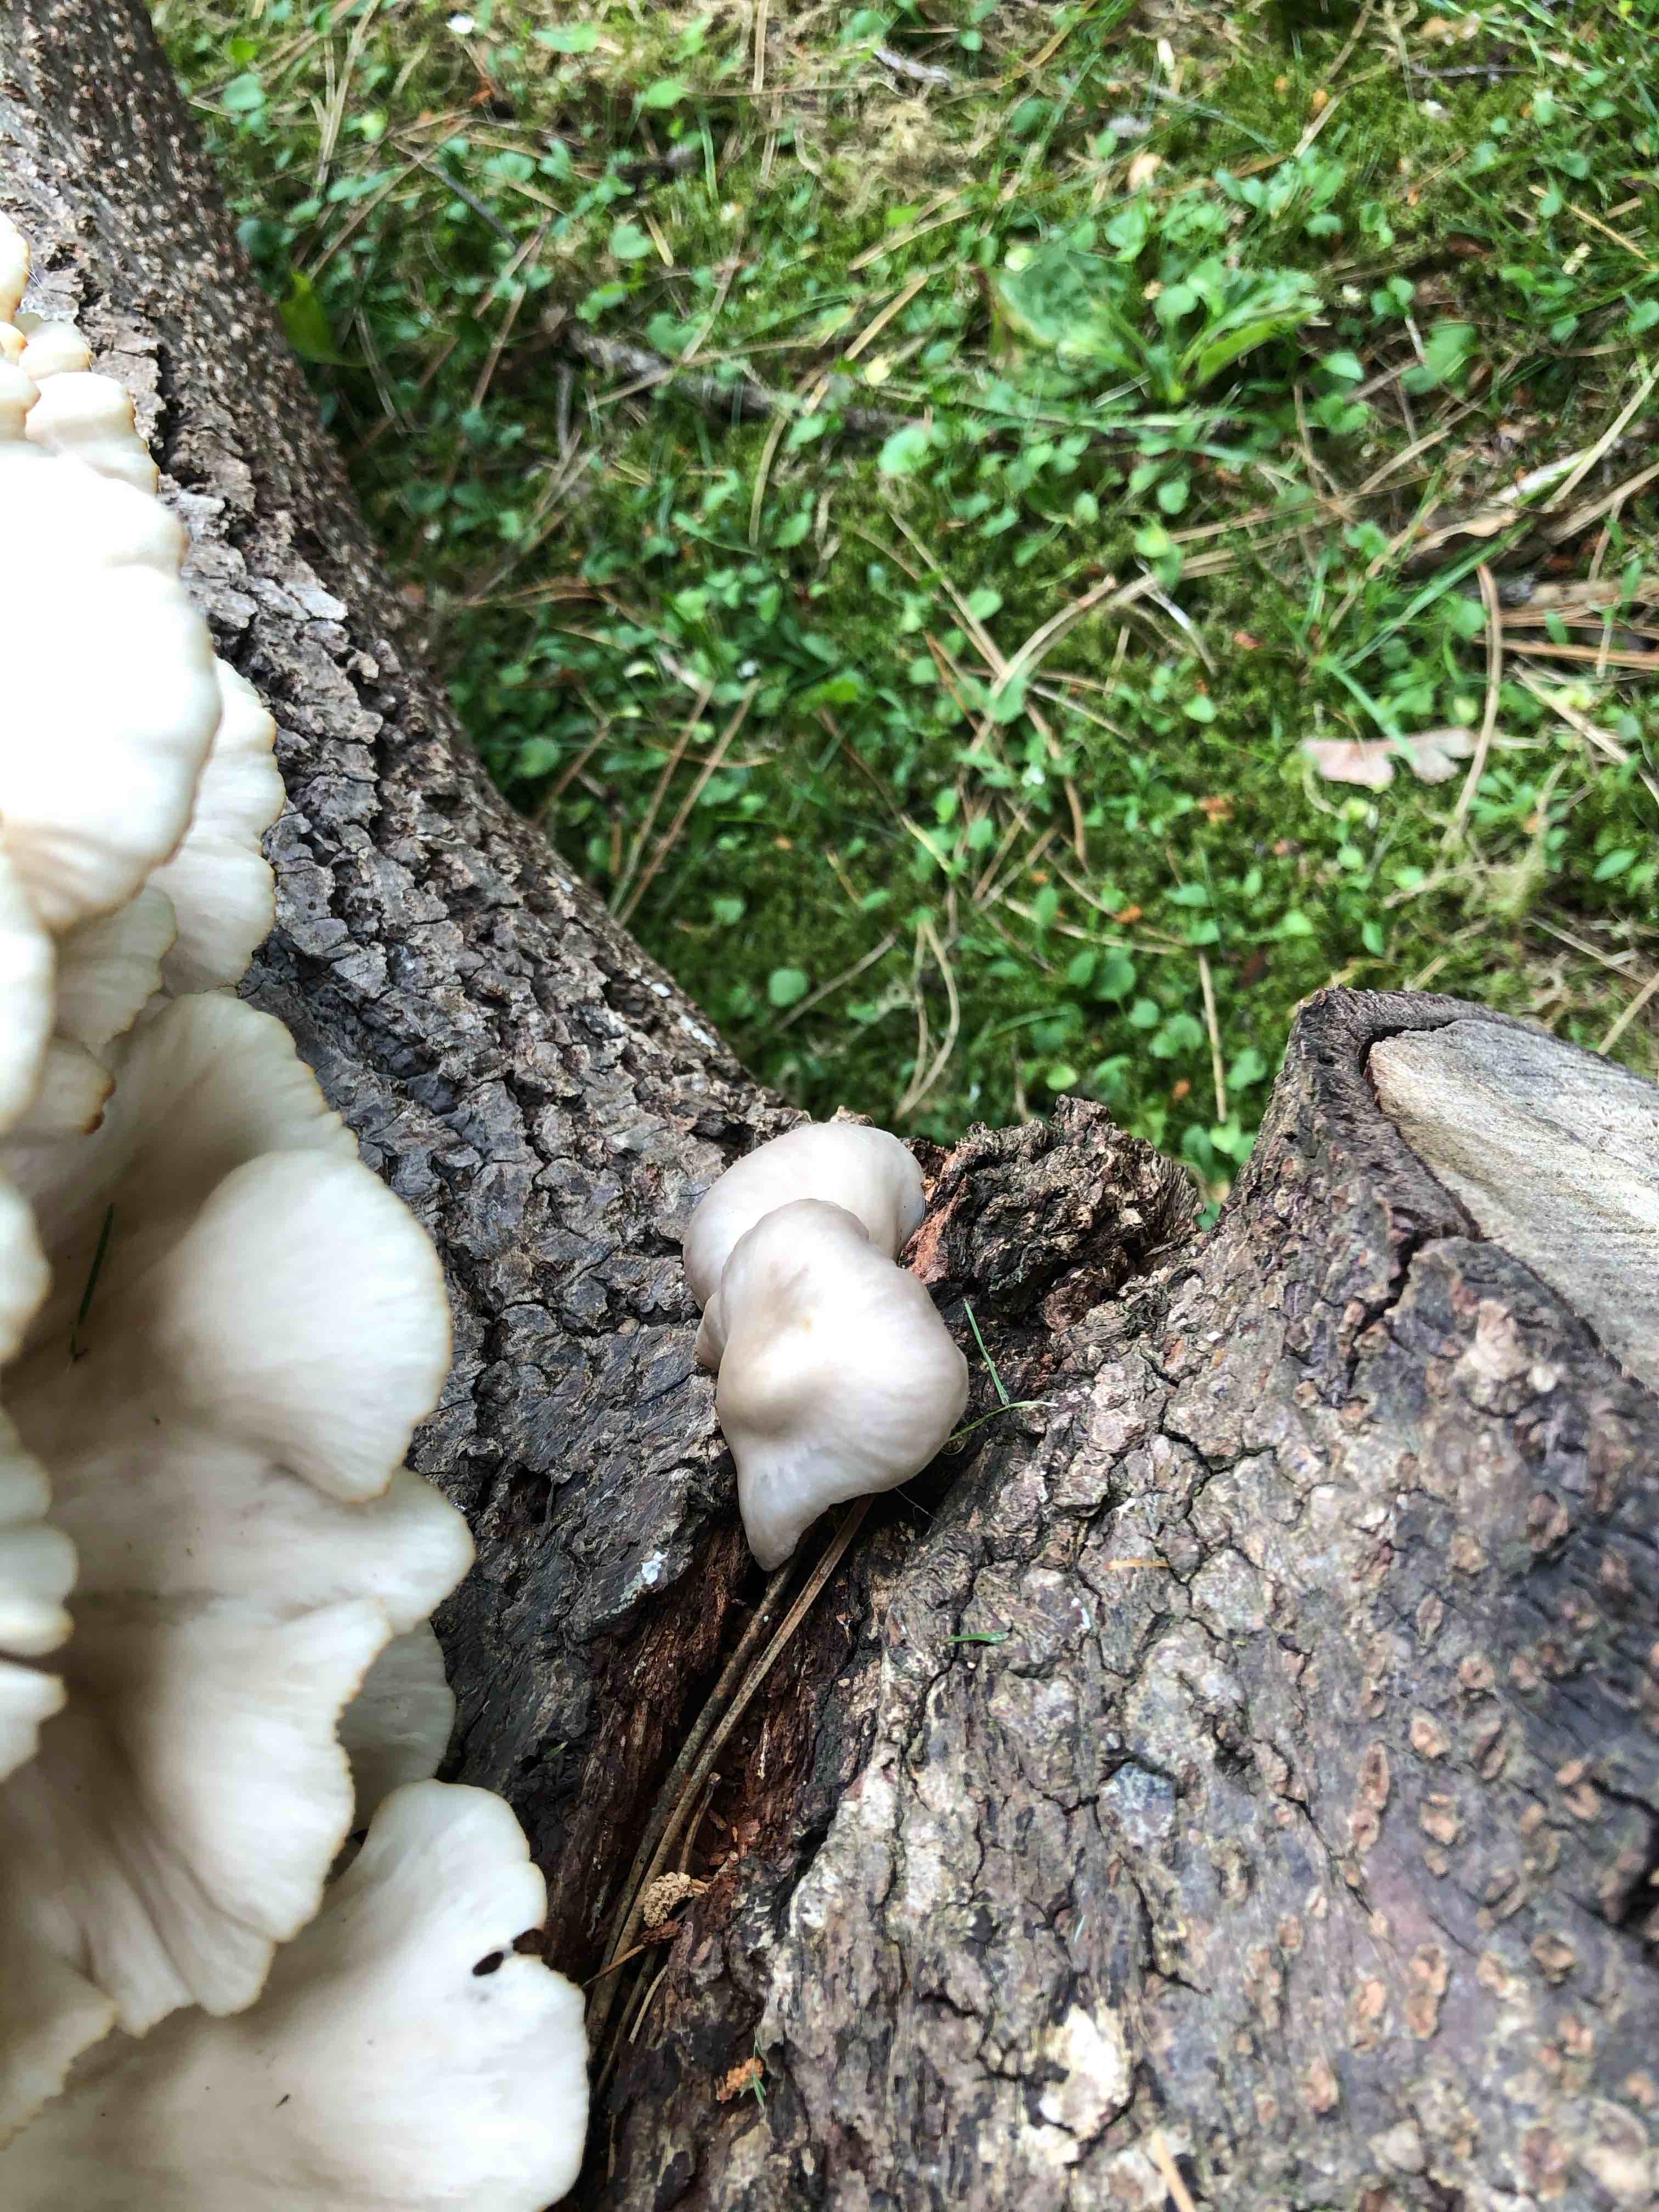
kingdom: Fungi
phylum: Basidiomycota
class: Agaricomycetes
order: Agaricales
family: Pleurotaceae
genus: Pleurotus
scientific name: Pleurotus pulmonarius
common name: sommer-østershat
